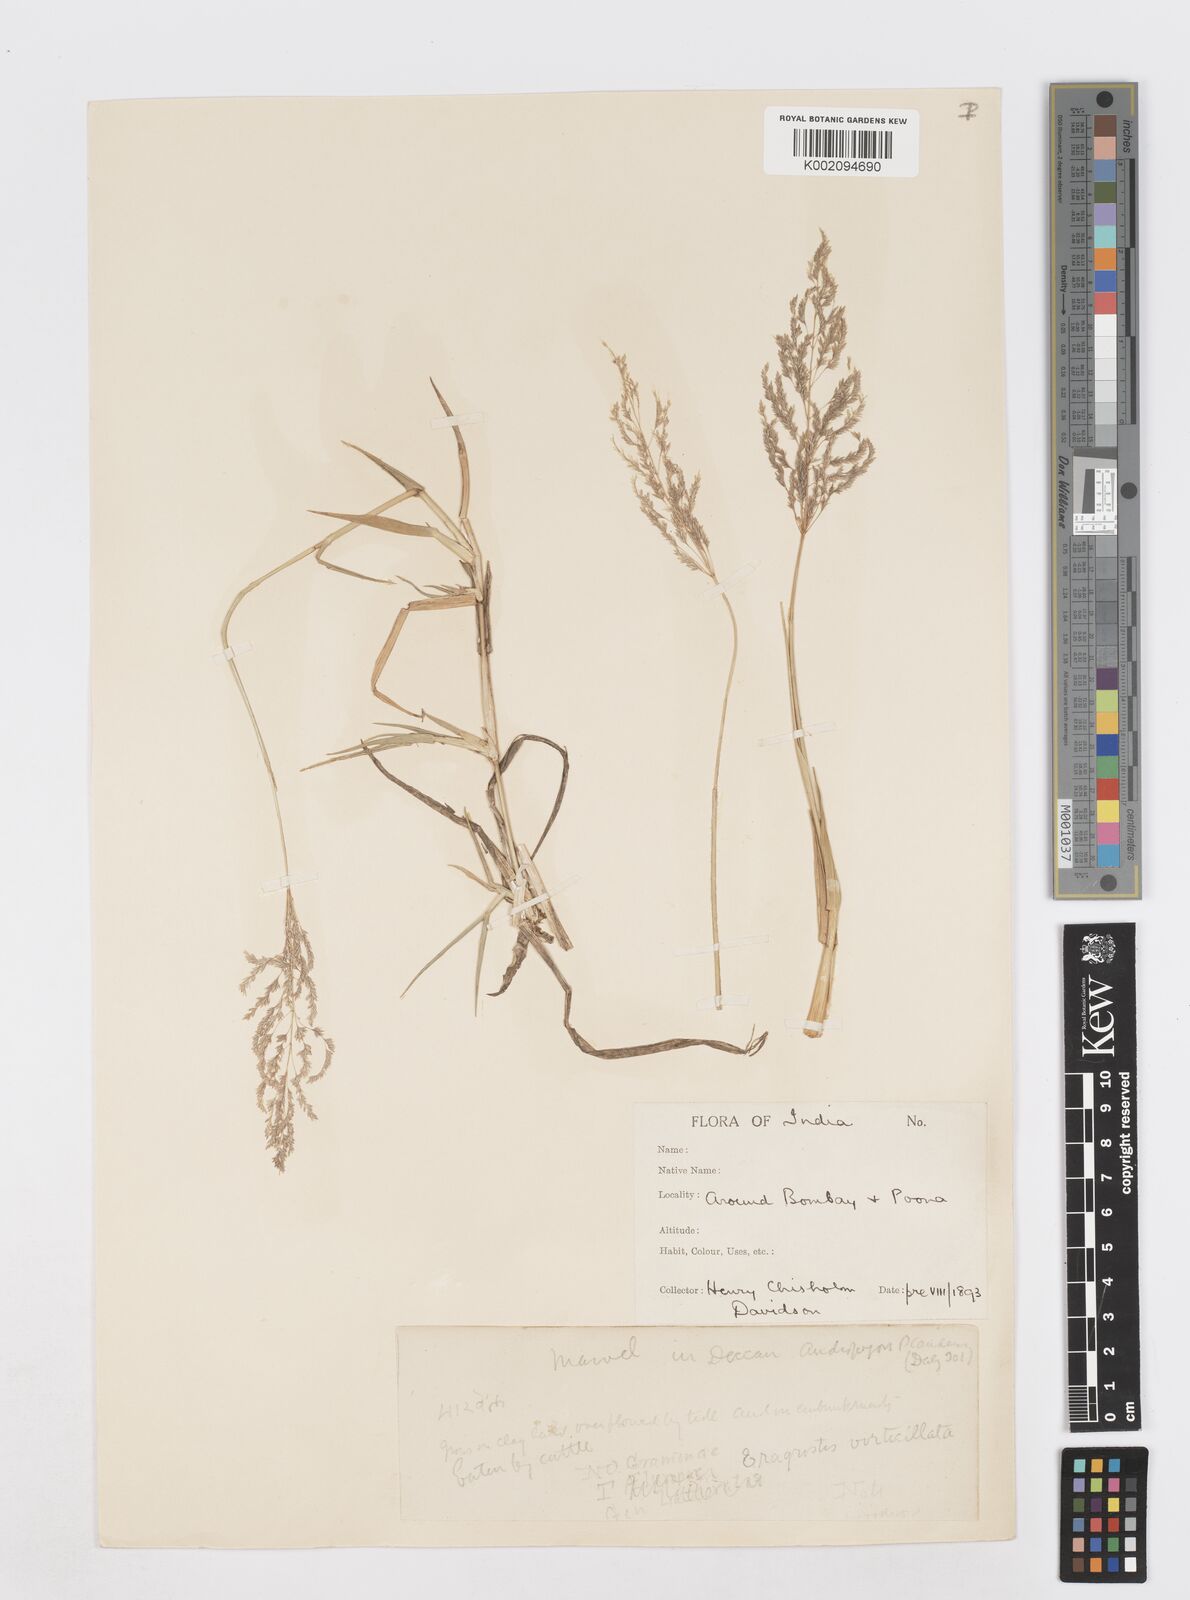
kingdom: Plantae
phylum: Tracheophyta
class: Liliopsida
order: Poales
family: Poaceae
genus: Sporobolus
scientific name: Sporobolus
